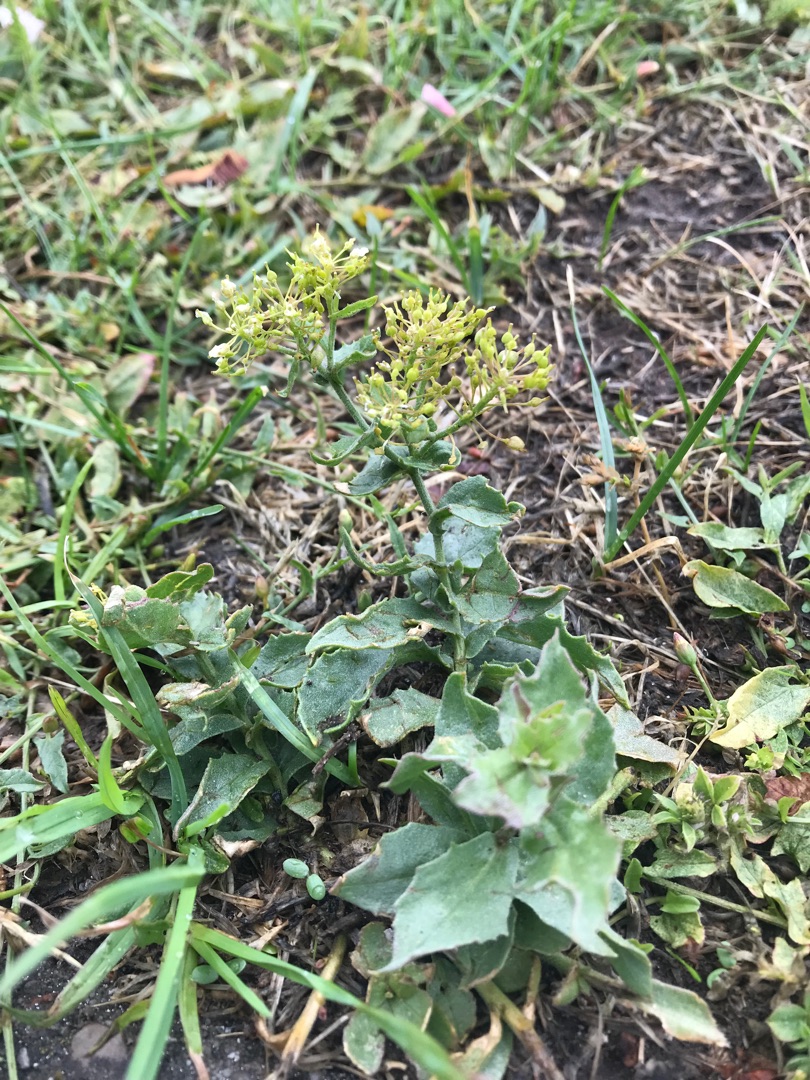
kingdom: Plantae
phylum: Tracheophyta
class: Magnoliopsida
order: Brassicales
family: Brassicaceae
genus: Lepidium
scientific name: Lepidium draba
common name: Hjerte-karse
